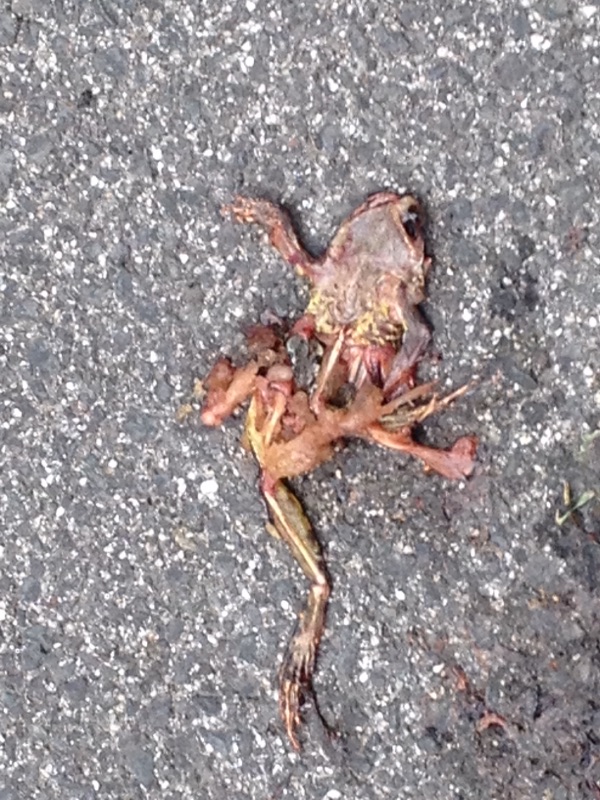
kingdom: Animalia
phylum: Chordata
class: Amphibia
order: Anura
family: Ranidae
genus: Rana
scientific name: Rana dalmatina
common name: Agile frog
